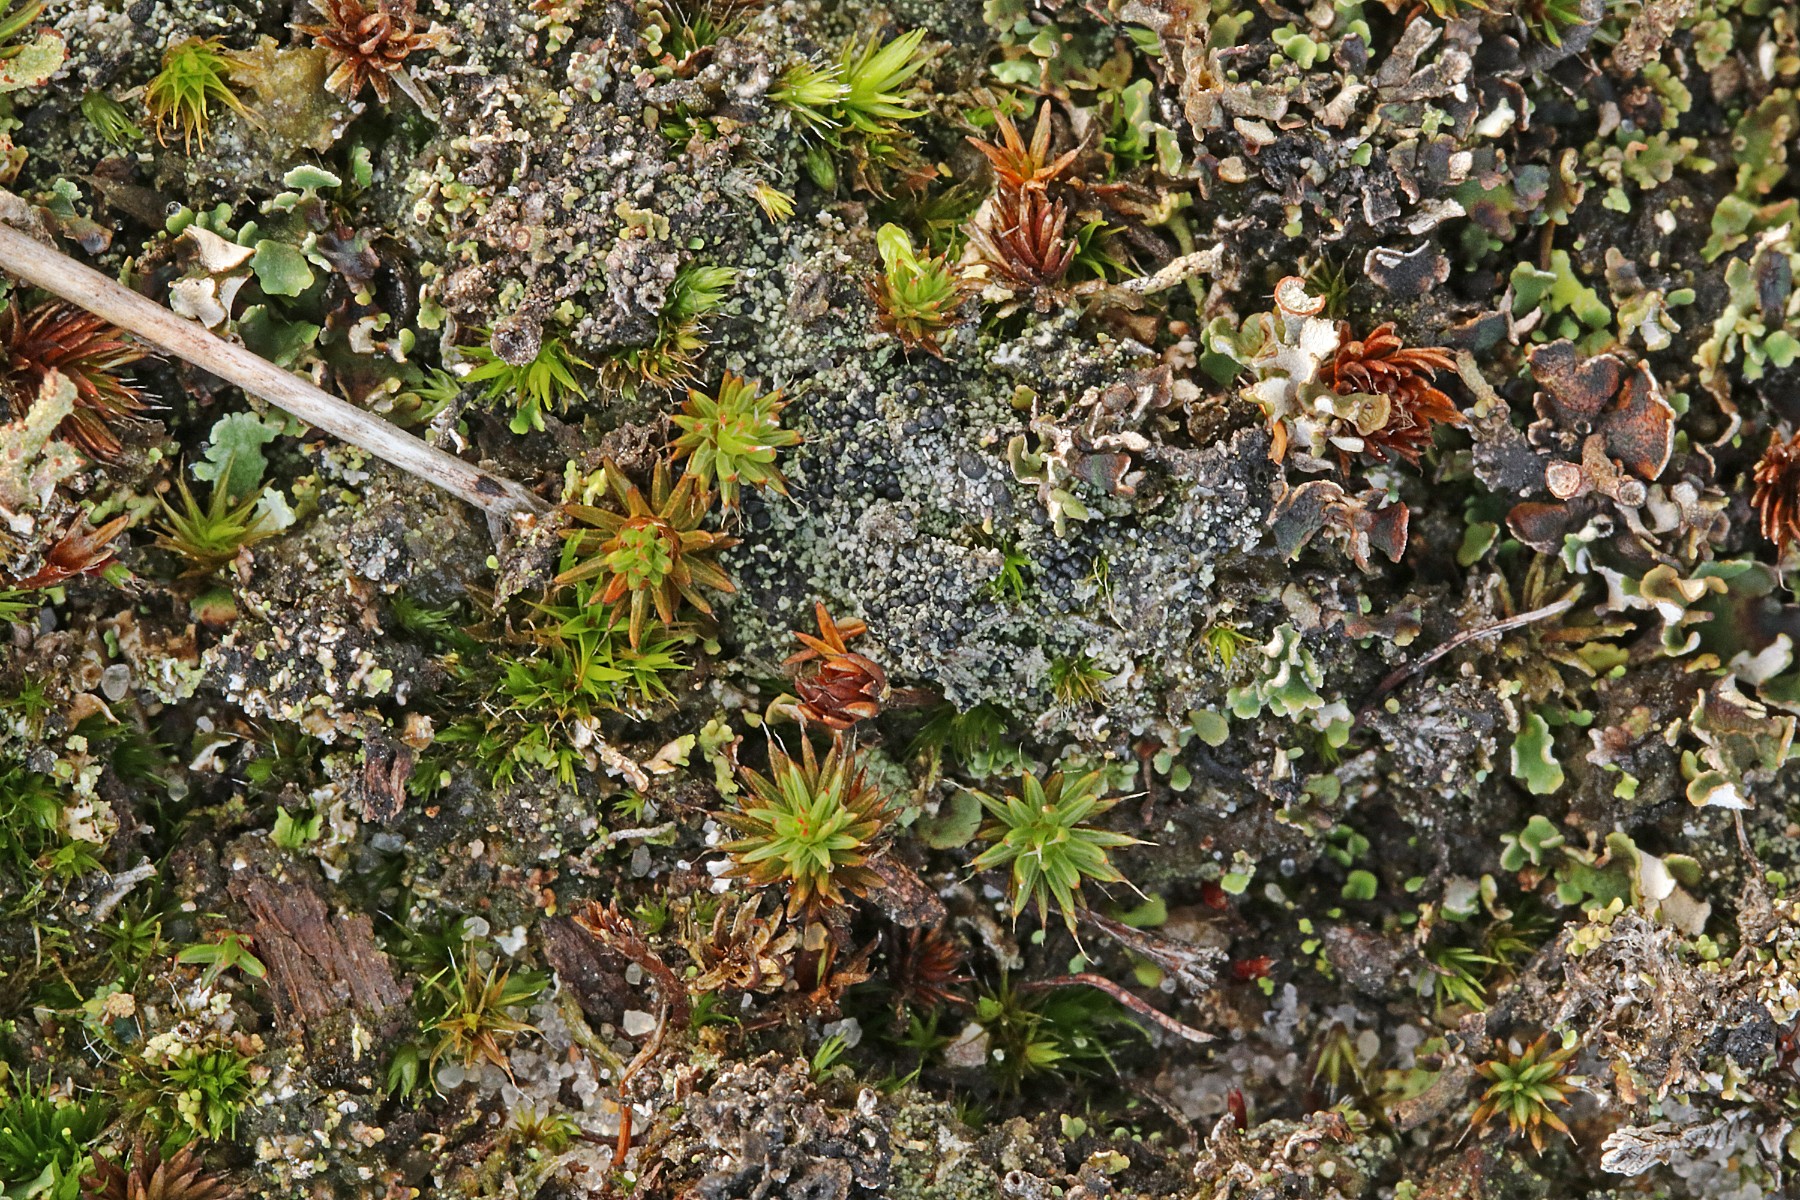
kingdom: Fungi
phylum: Ascomycota
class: Lecanoromycetes
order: Lecanorales
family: Byssolomataceae
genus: Micarea
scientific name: Micarea lignaria
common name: tørve-knaplav
